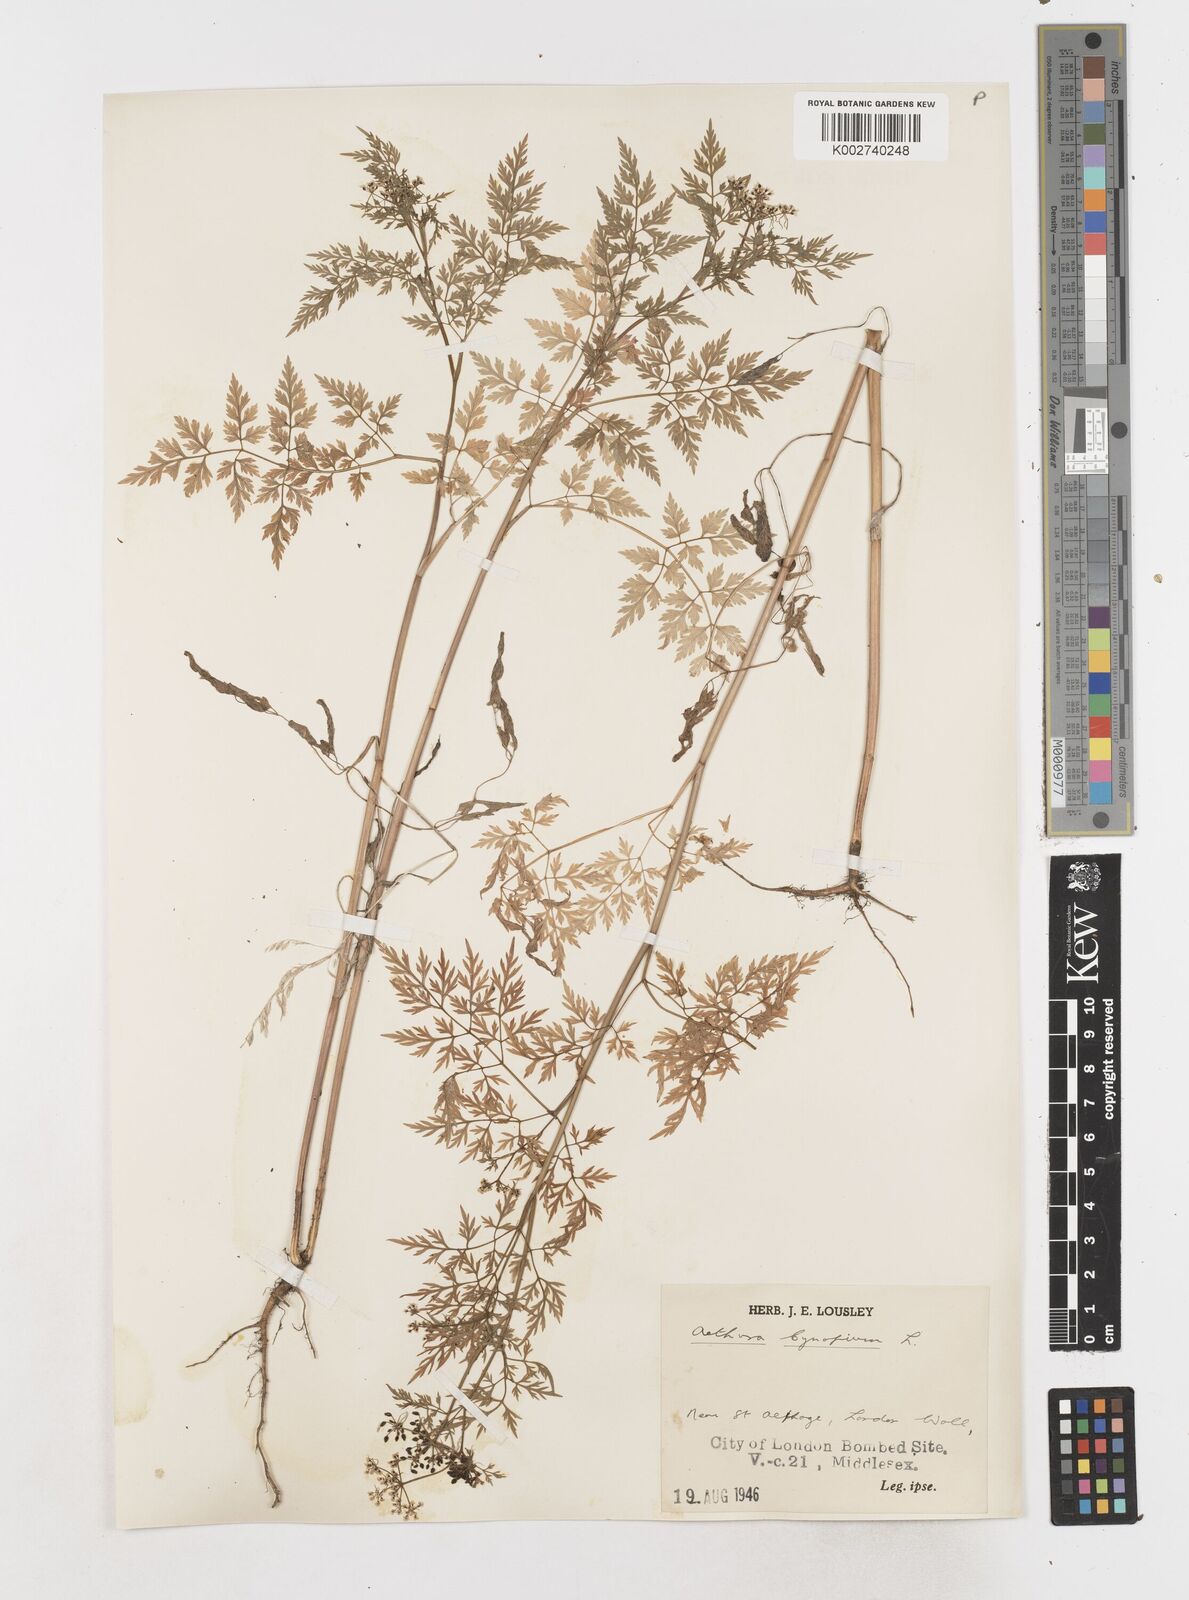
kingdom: Plantae
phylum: Tracheophyta
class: Magnoliopsida
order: Apiales
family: Apiaceae
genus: Aethusa
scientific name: Aethusa cynapium
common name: Fool's parsley
